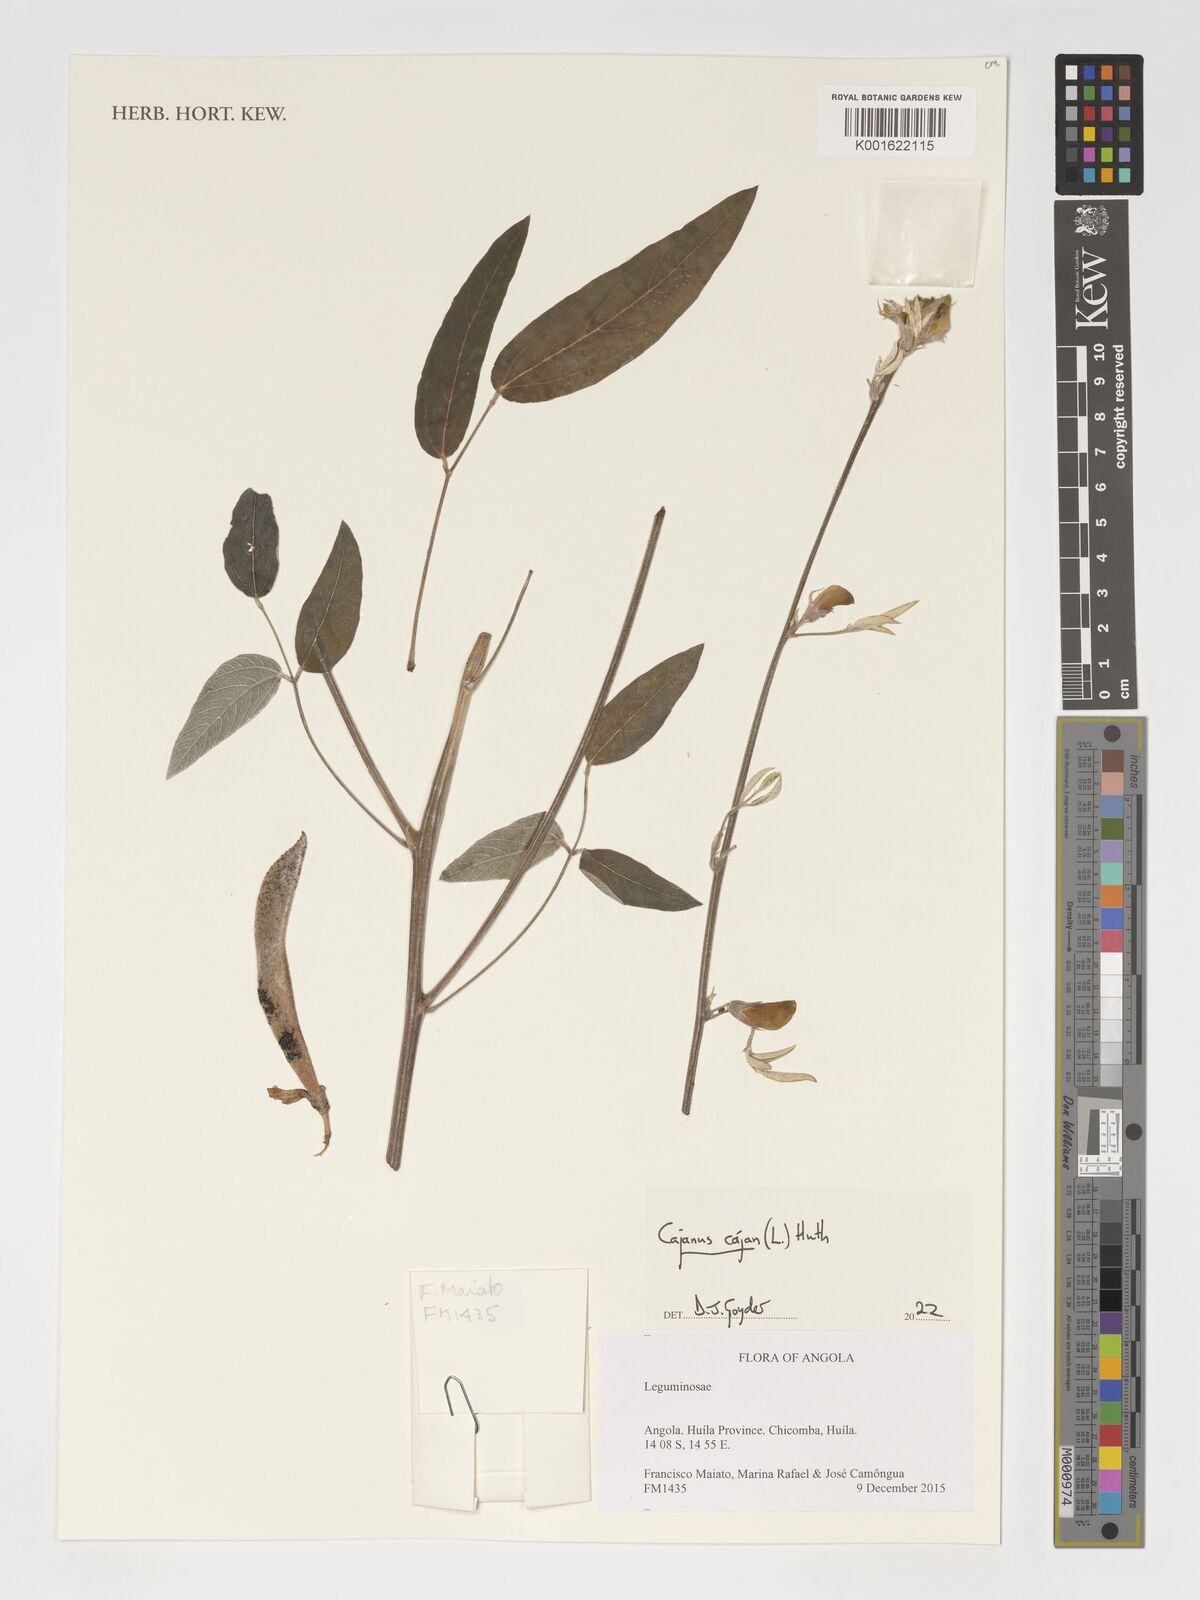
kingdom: Plantae
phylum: Tracheophyta
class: Magnoliopsida
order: Fabales
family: Fabaceae
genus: Cajanus
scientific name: Cajanus cajan
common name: Pigeonpea
